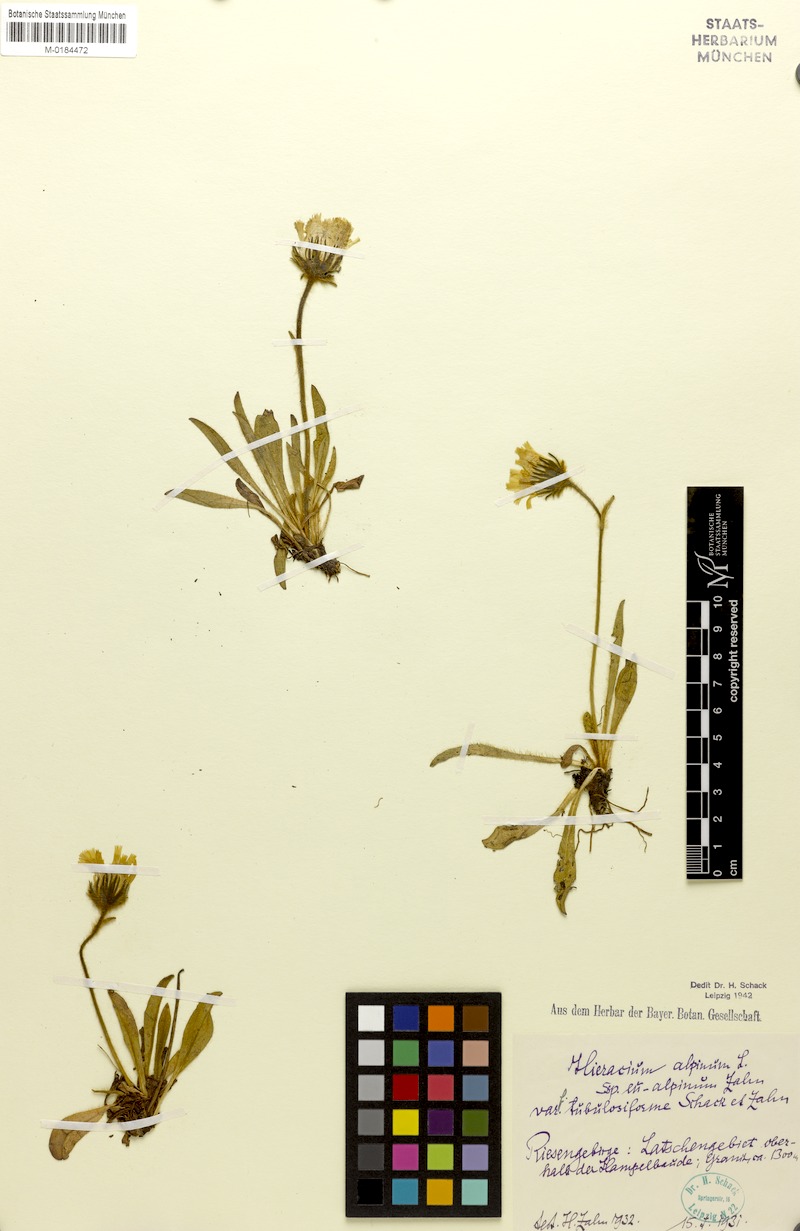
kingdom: Plantae
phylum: Tracheophyta
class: Magnoliopsida
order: Asterales
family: Asteraceae
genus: Hieracium
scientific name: Hieracium alpinum
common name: Alpine hawkweed
